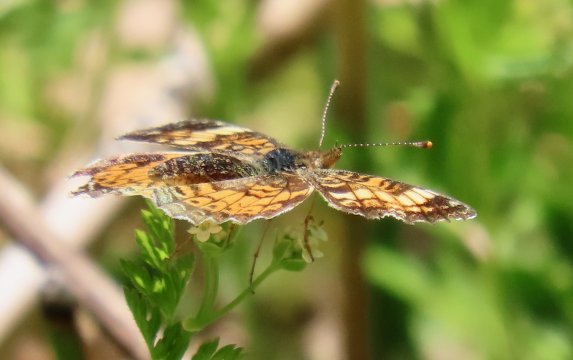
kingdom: Animalia
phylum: Arthropoda
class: Insecta
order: Lepidoptera
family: Nymphalidae
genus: Phyciodes
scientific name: Phyciodes tharos
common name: Pearl Crescent
